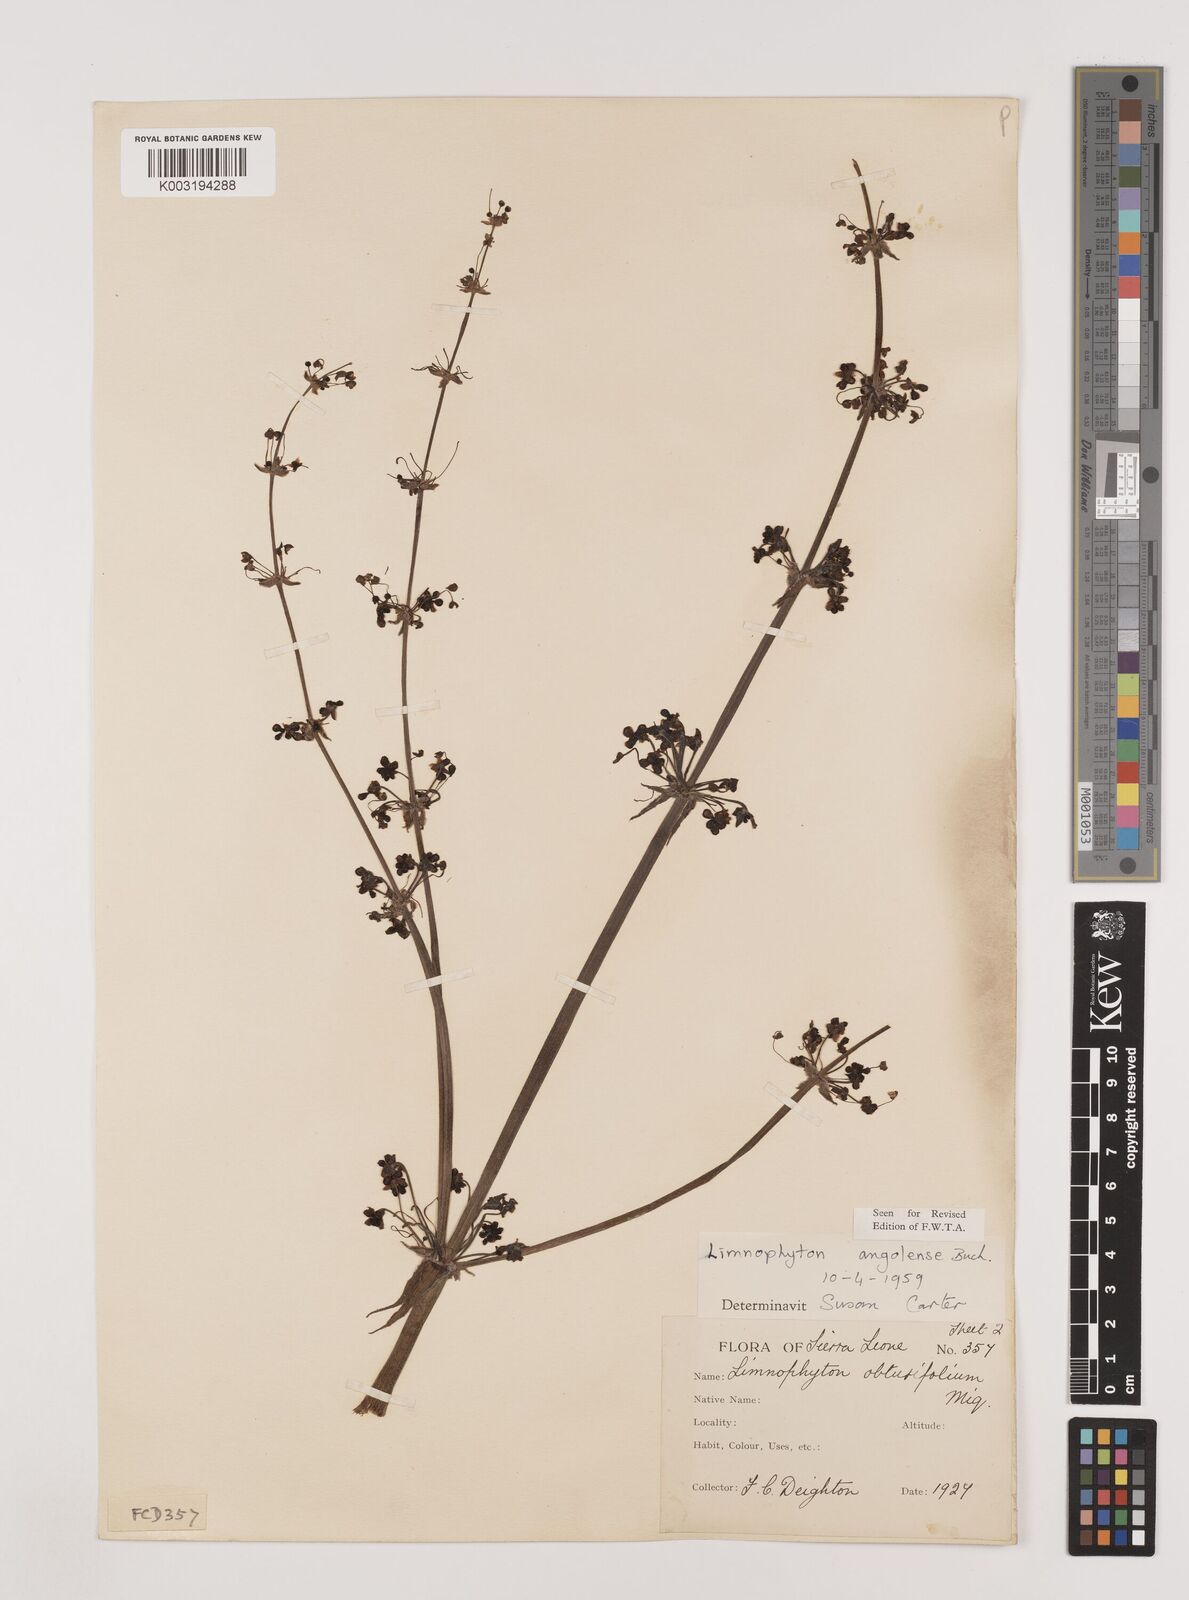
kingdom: Plantae
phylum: Tracheophyta
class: Liliopsida
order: Alismatales
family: Alismataceae
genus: Limnophyton
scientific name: Limnophyton angolense
